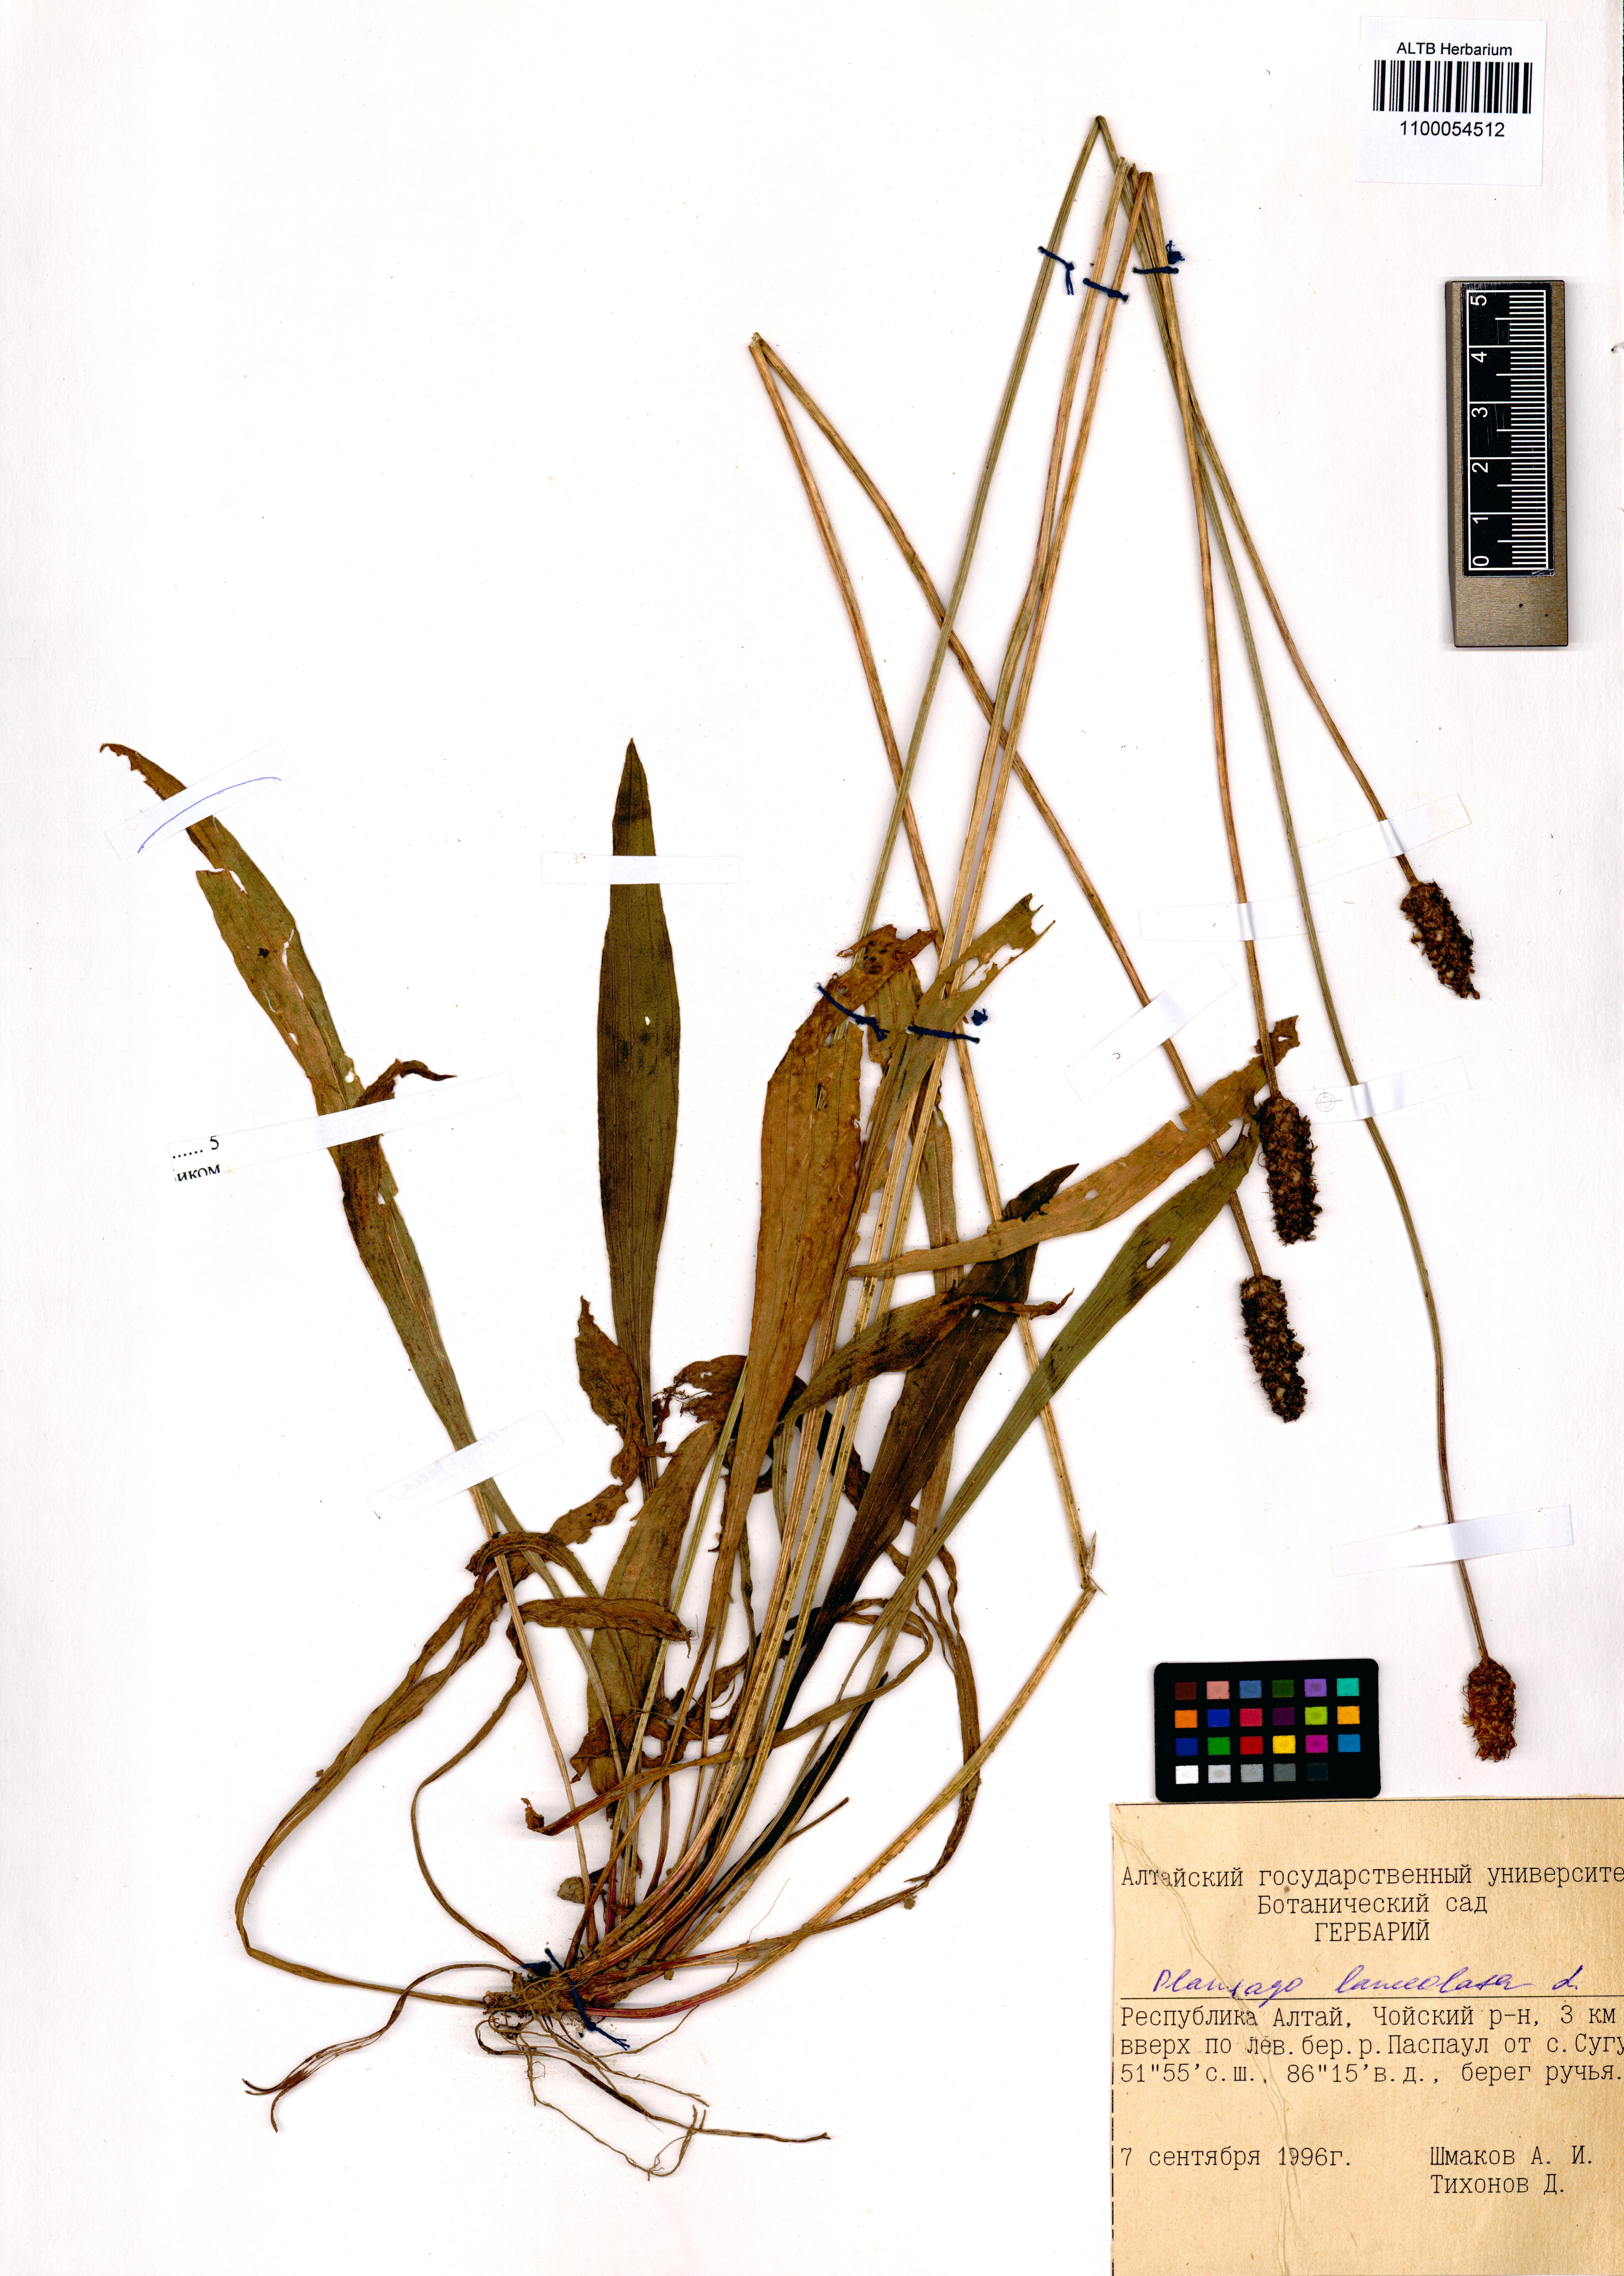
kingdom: Plantae
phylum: Tracheophyta
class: Magnoliopsida
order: Lamiales
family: Plantaginaceae
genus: Plantago
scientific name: Plantago lanceolata
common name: Ribwort plantain
